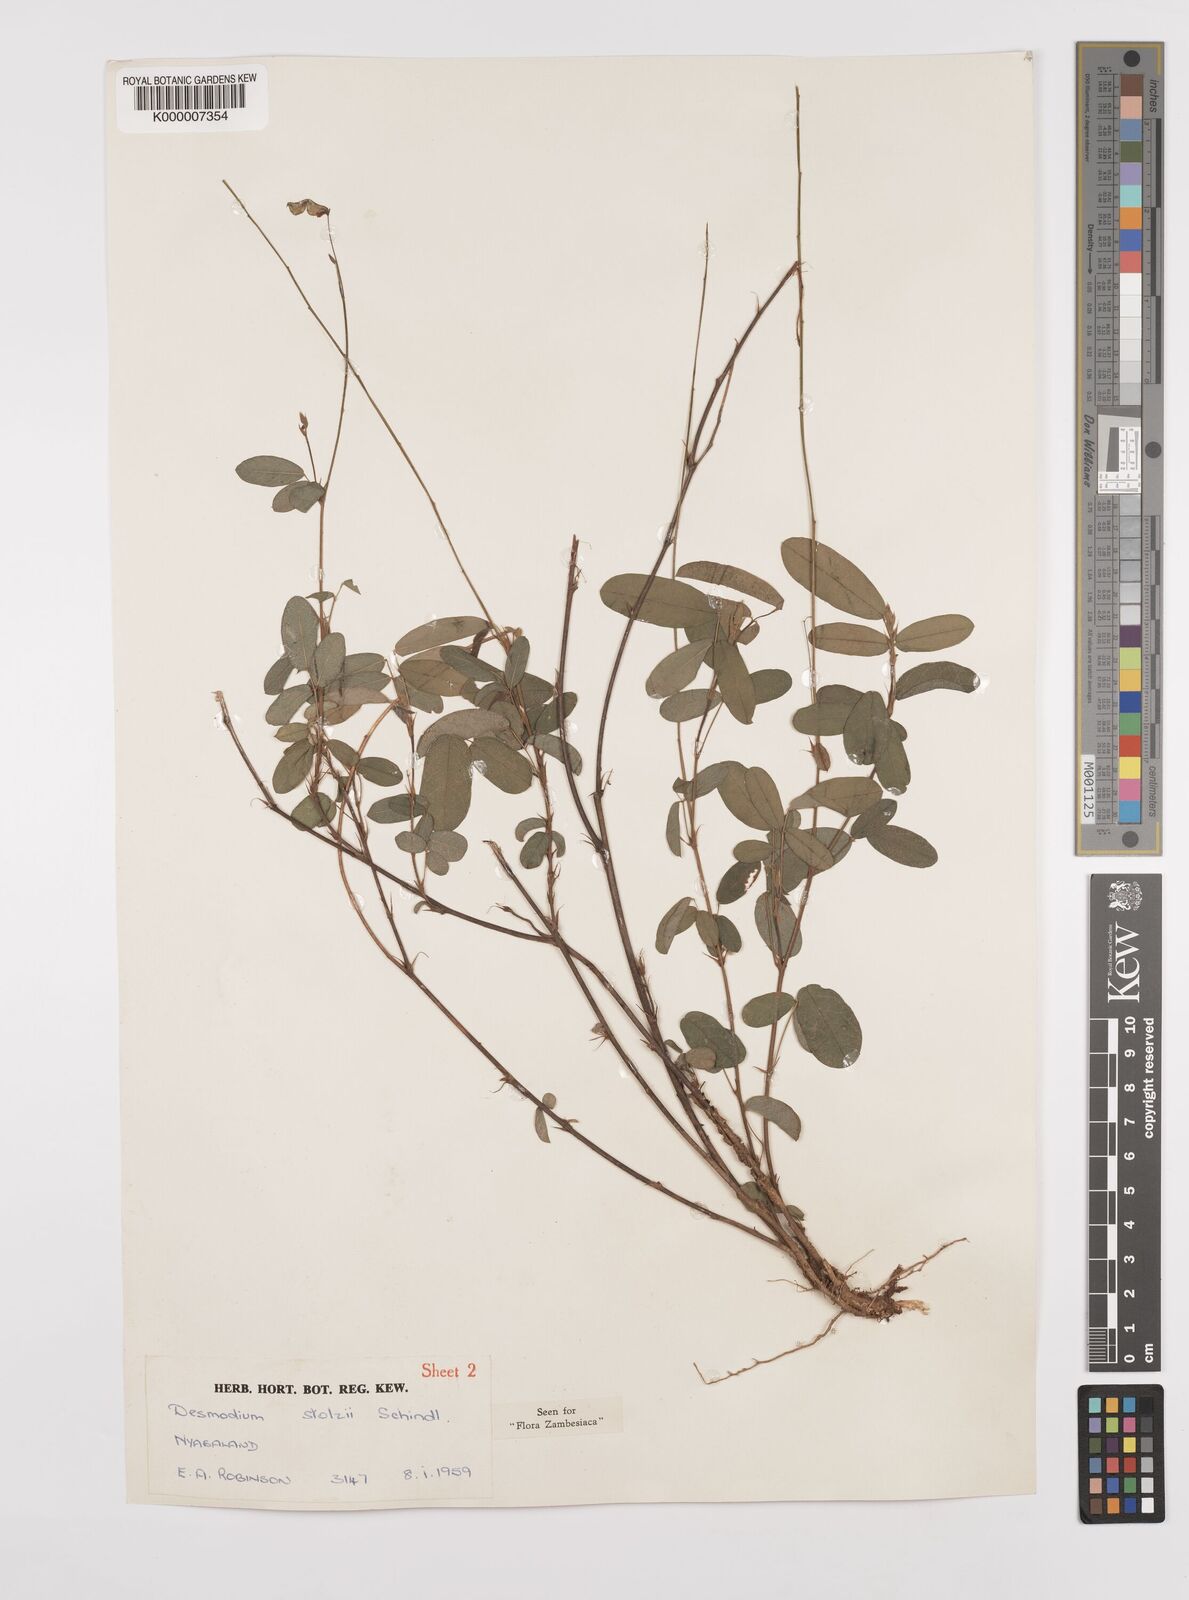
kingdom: Plantae
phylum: Tracheophyta
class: Magnoliopsida
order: Fabales
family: Fabaceae
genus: Grona
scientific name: Grona stolzii
